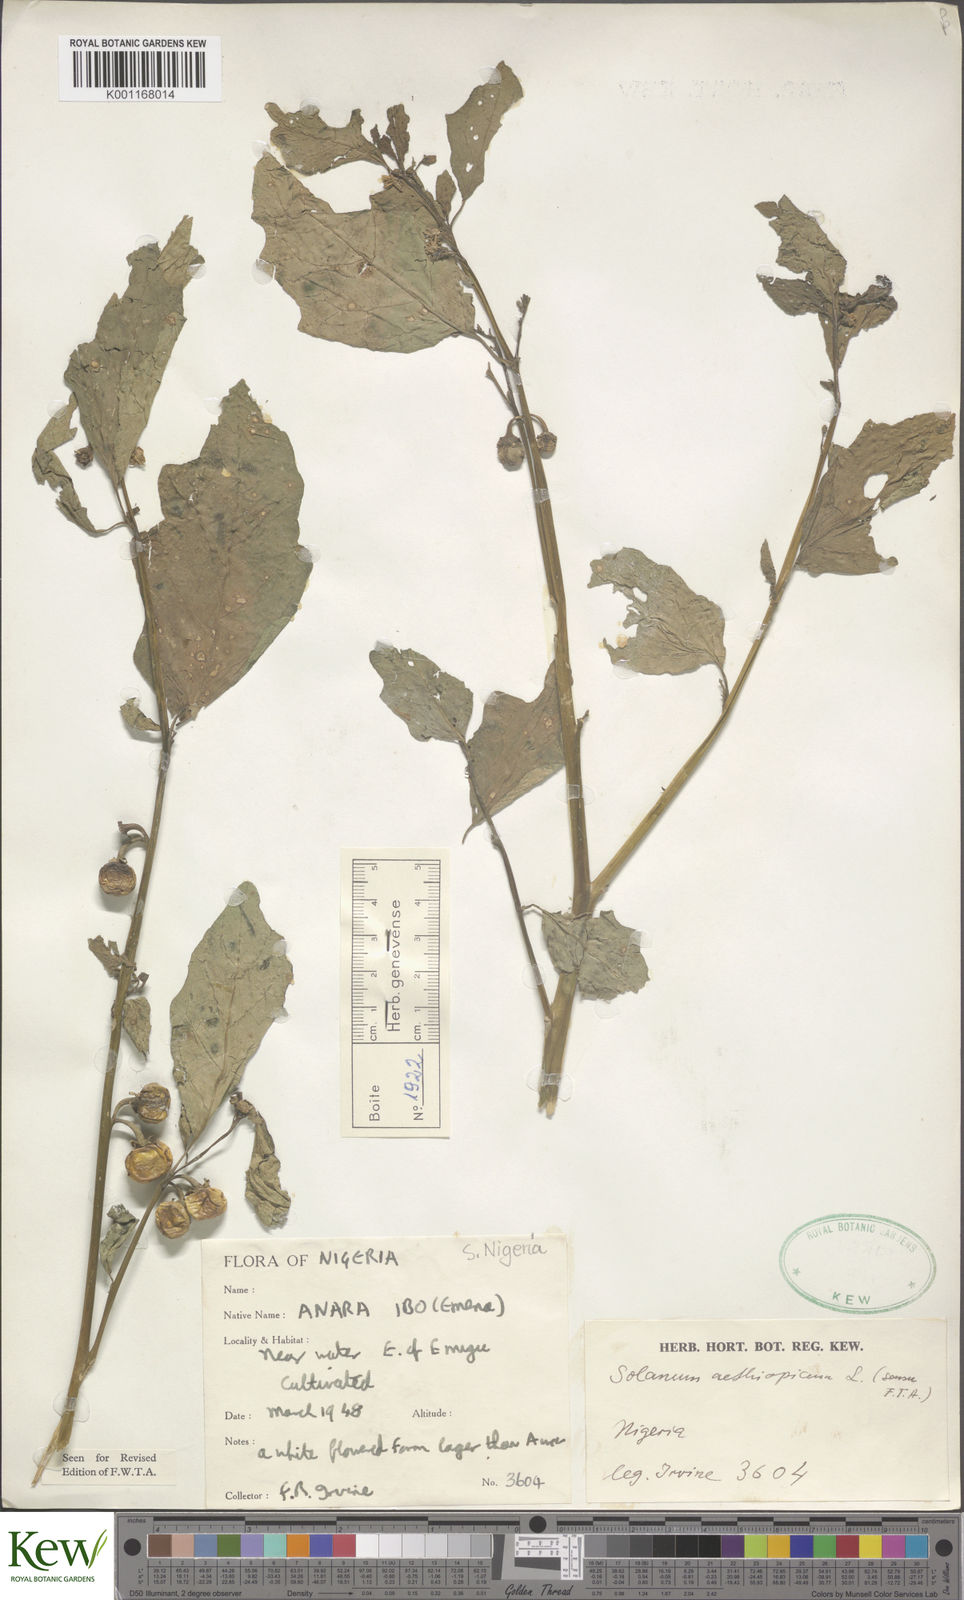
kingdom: Plantae
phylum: Tracheophyta
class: Magnoliopsida
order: Solanales
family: Solanaceae
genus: Solanum
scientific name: Solanum aethiopicum
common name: Gilo
